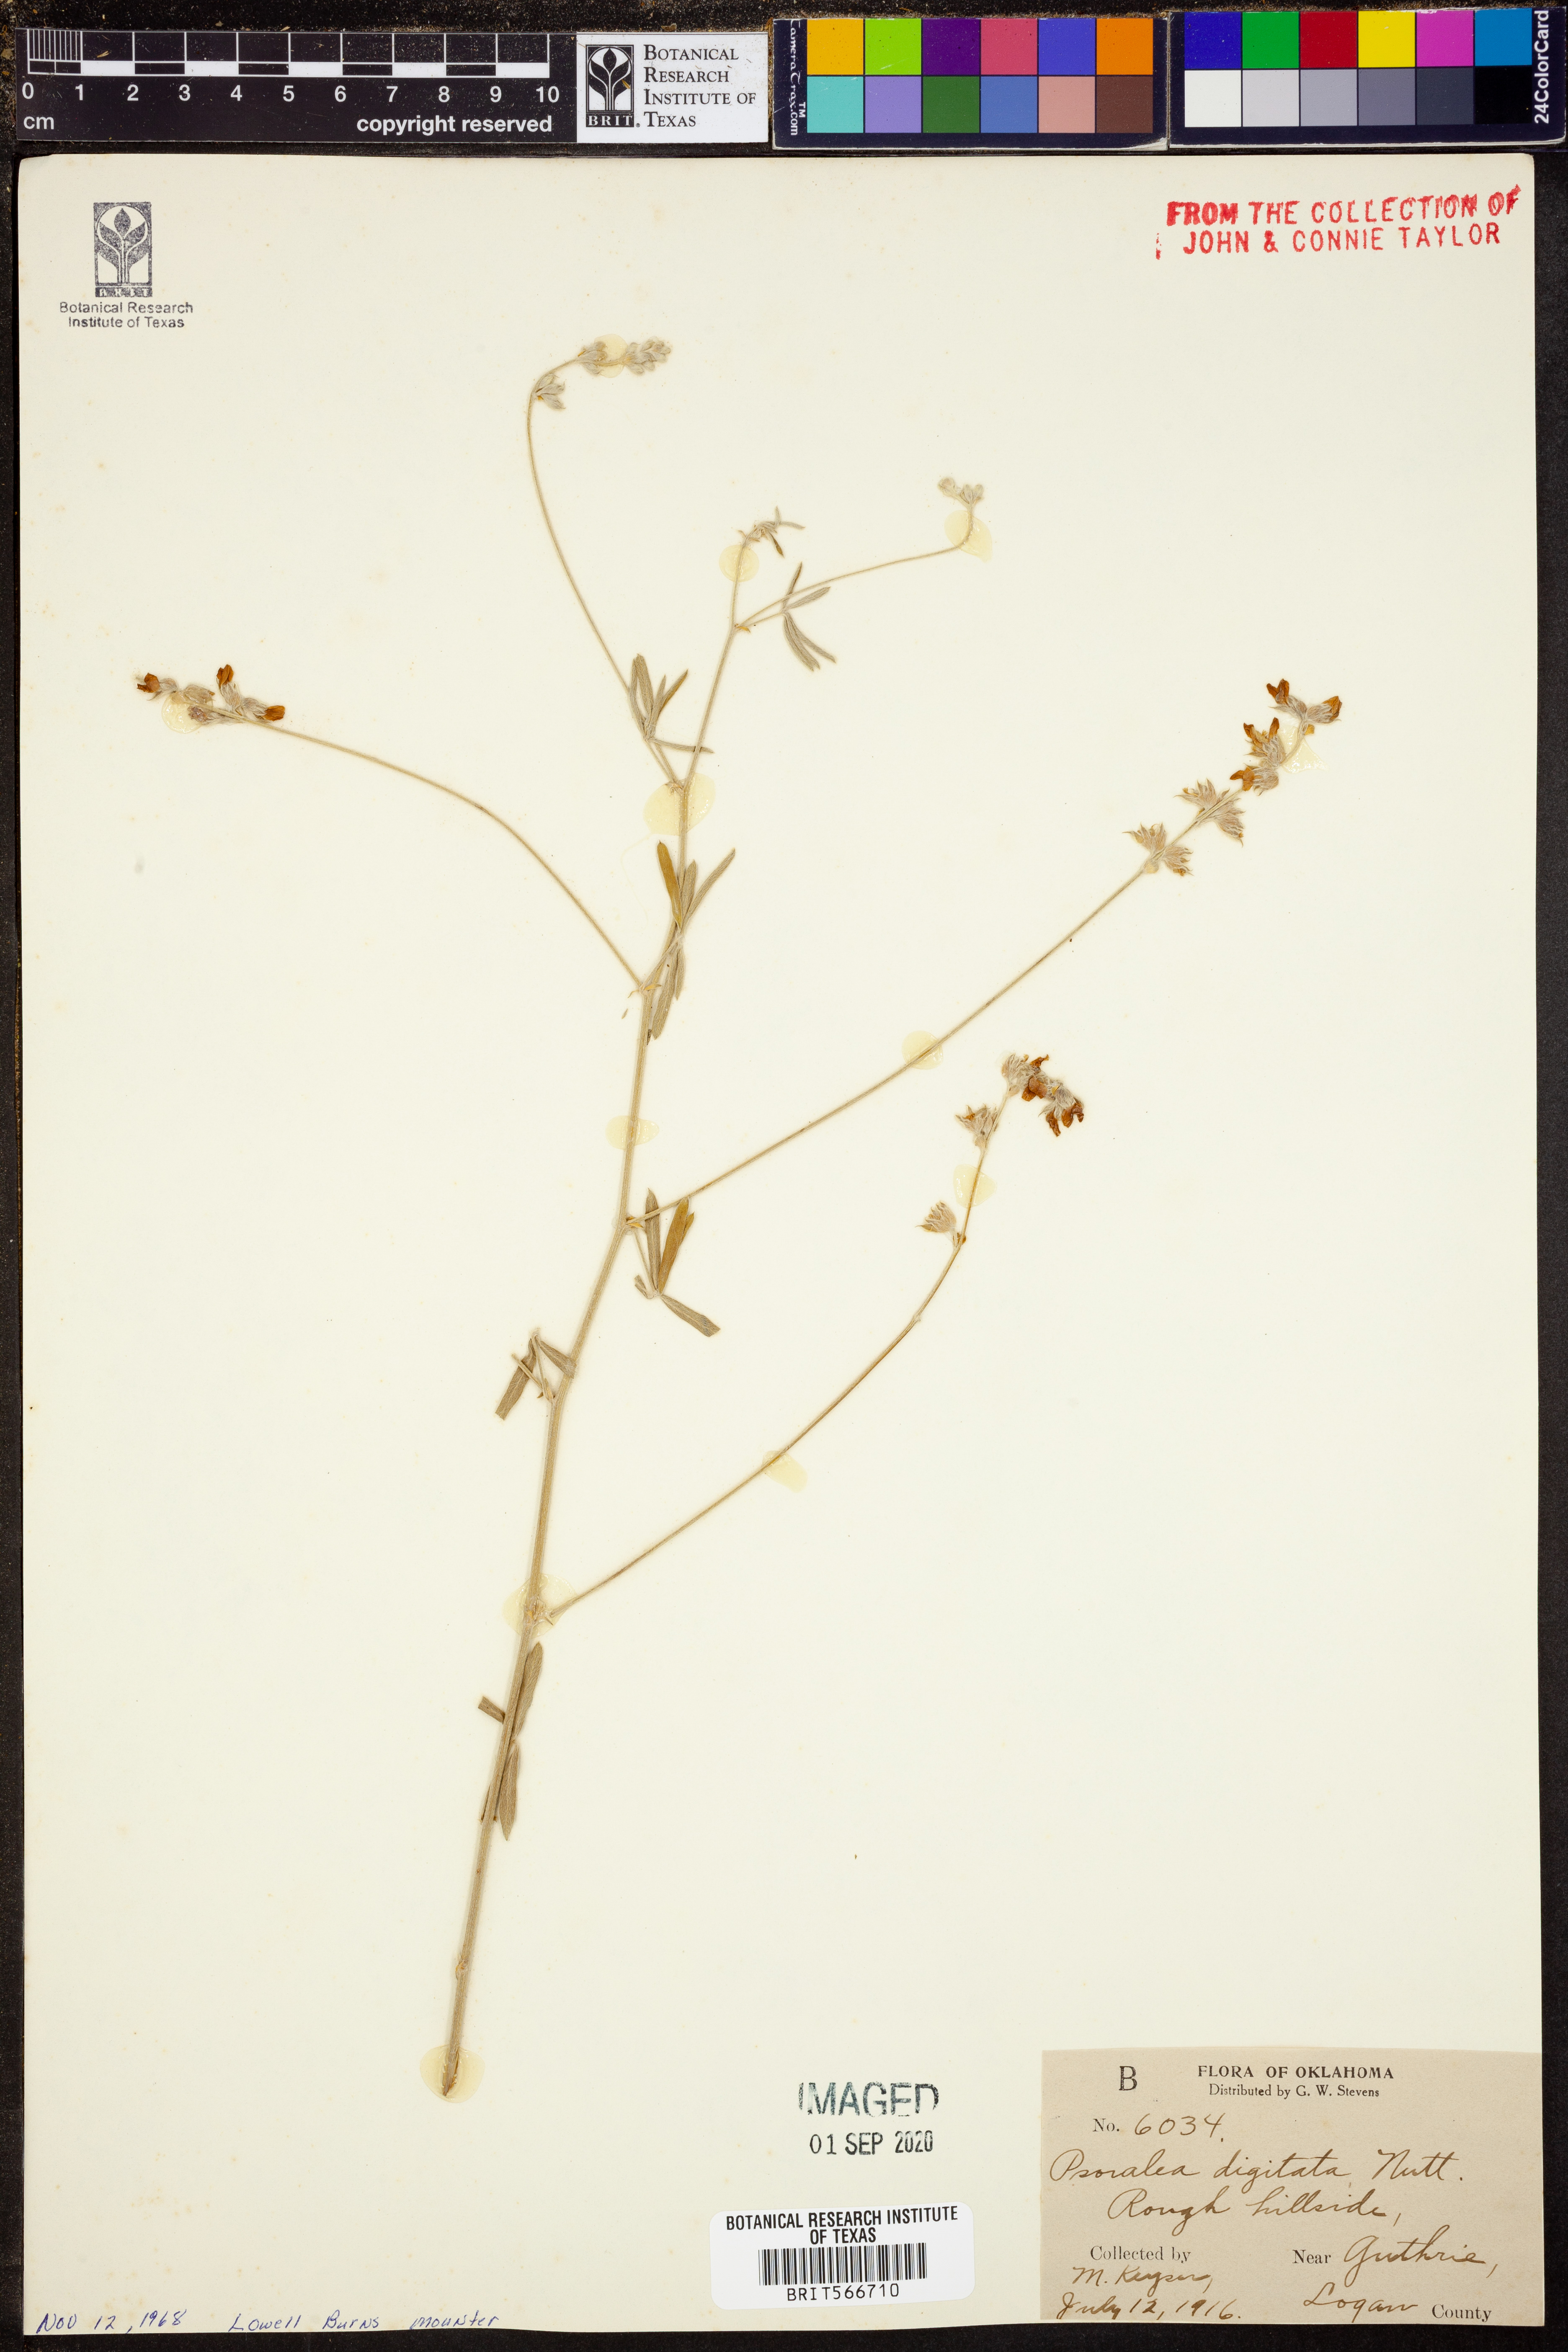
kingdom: Plantae
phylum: Tracheophyta
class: Magnoliopsida
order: Fabales
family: Fabaceae
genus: Pediomelum
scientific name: Pediomelum digitatum
